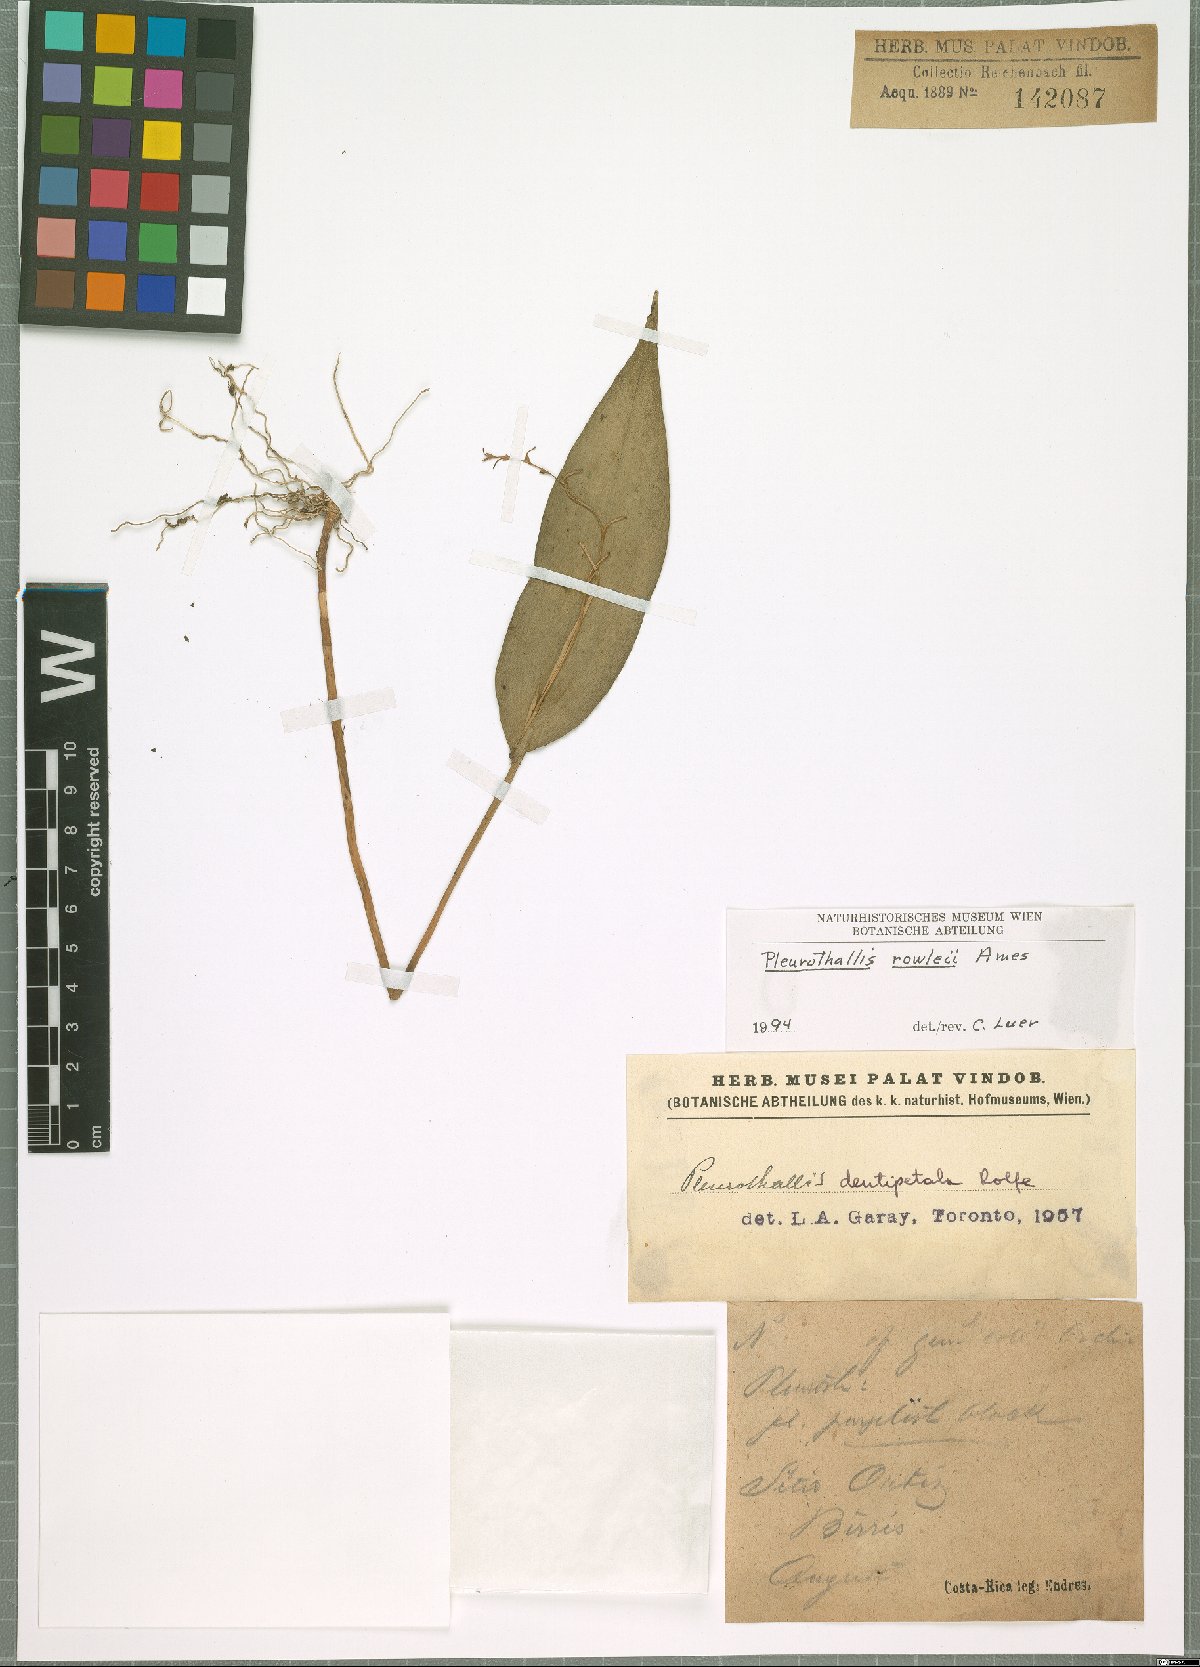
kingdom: Plantae
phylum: Tracheophyta
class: Liliopsida
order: Asparagales
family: Orchidaceae
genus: Pleurothallis
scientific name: Pleurothallis rowleei
